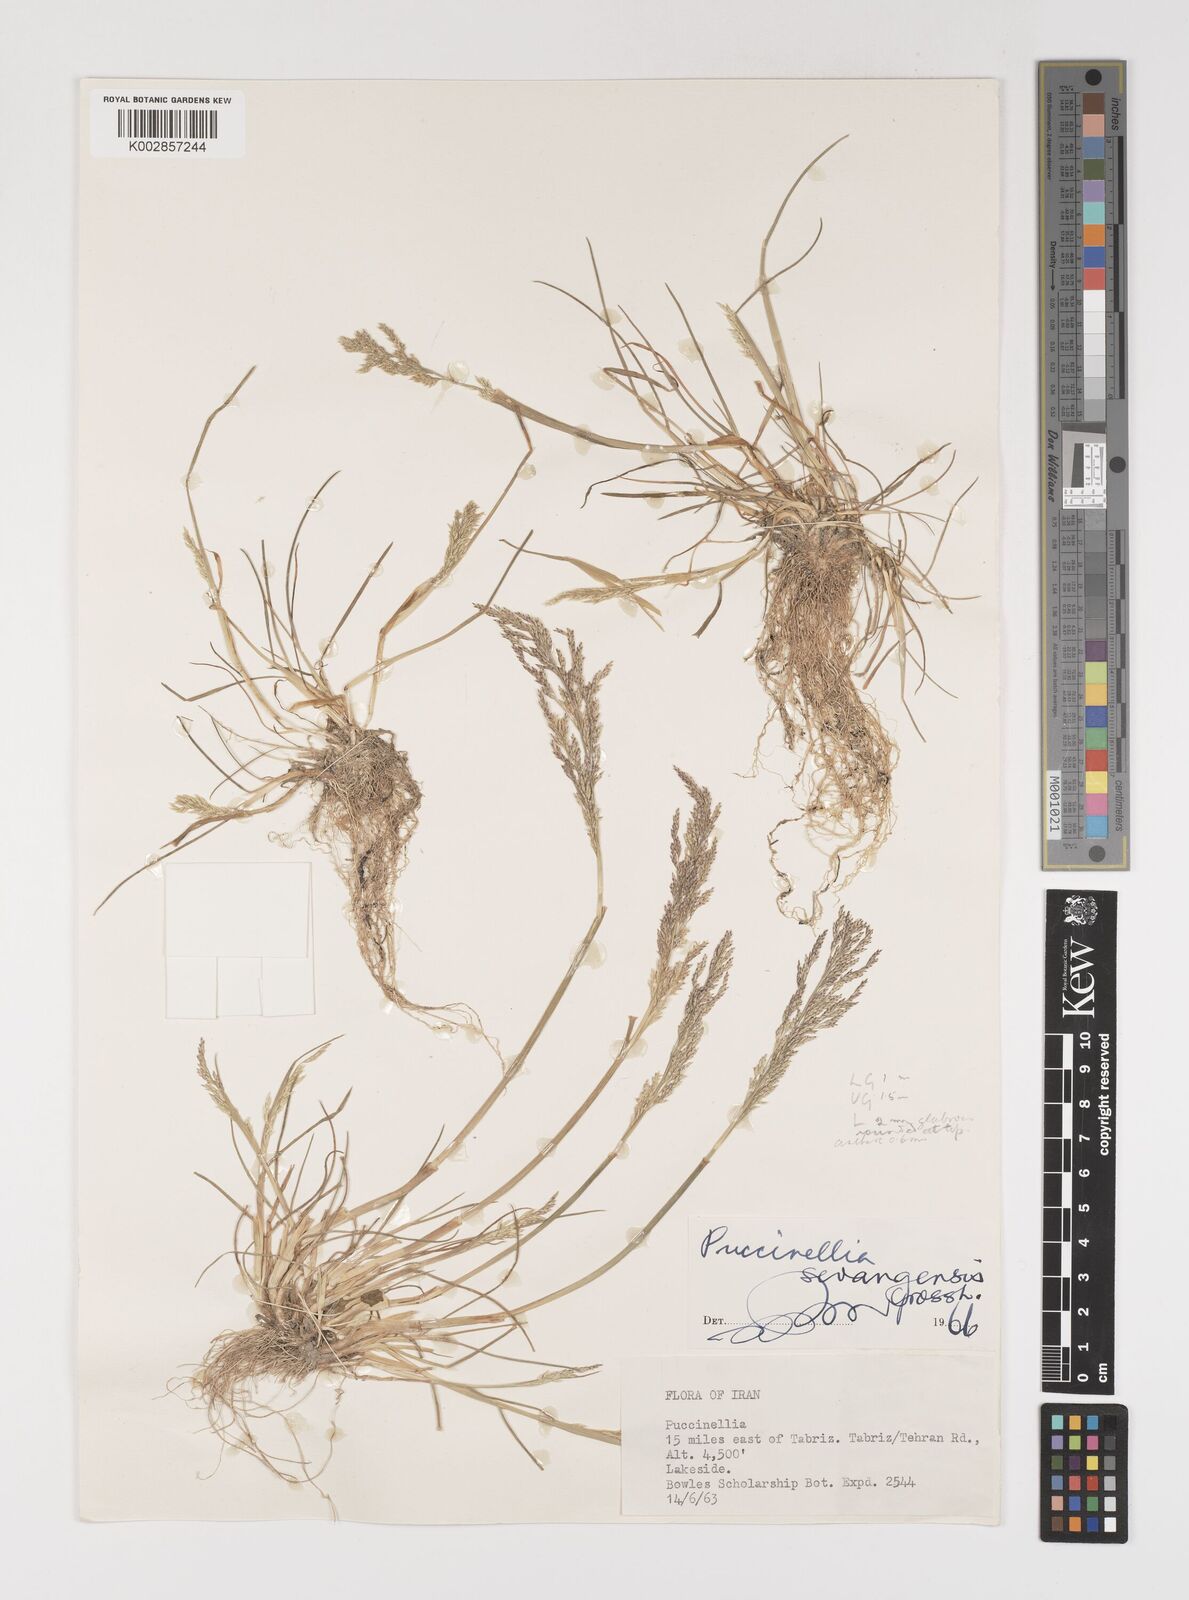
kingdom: Plantae
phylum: Tracheophyta
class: Liliopsida
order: Poales
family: Poaceae
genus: Puccinellia
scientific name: Puccinellia distans
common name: Weeping alkaligrass
